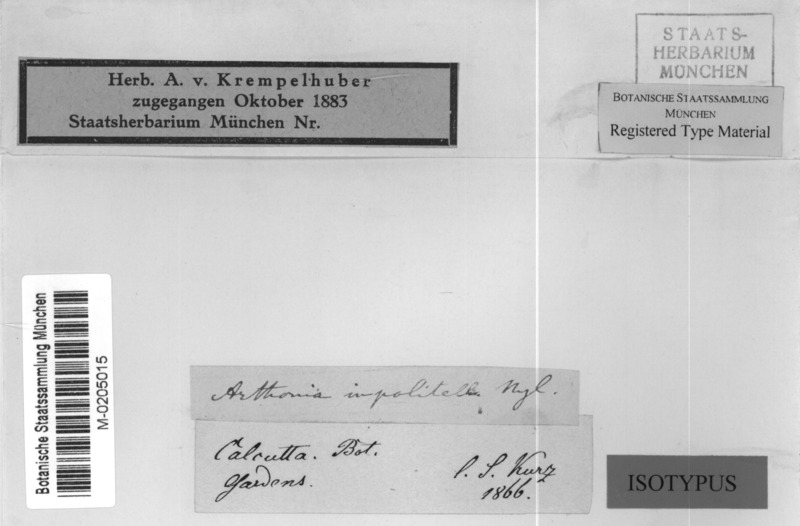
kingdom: Fungi
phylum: Ascomycota
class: Arthoniomycetes
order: Arthoniales
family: Arthoniaceae
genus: Arthonia
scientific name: Arthonia
